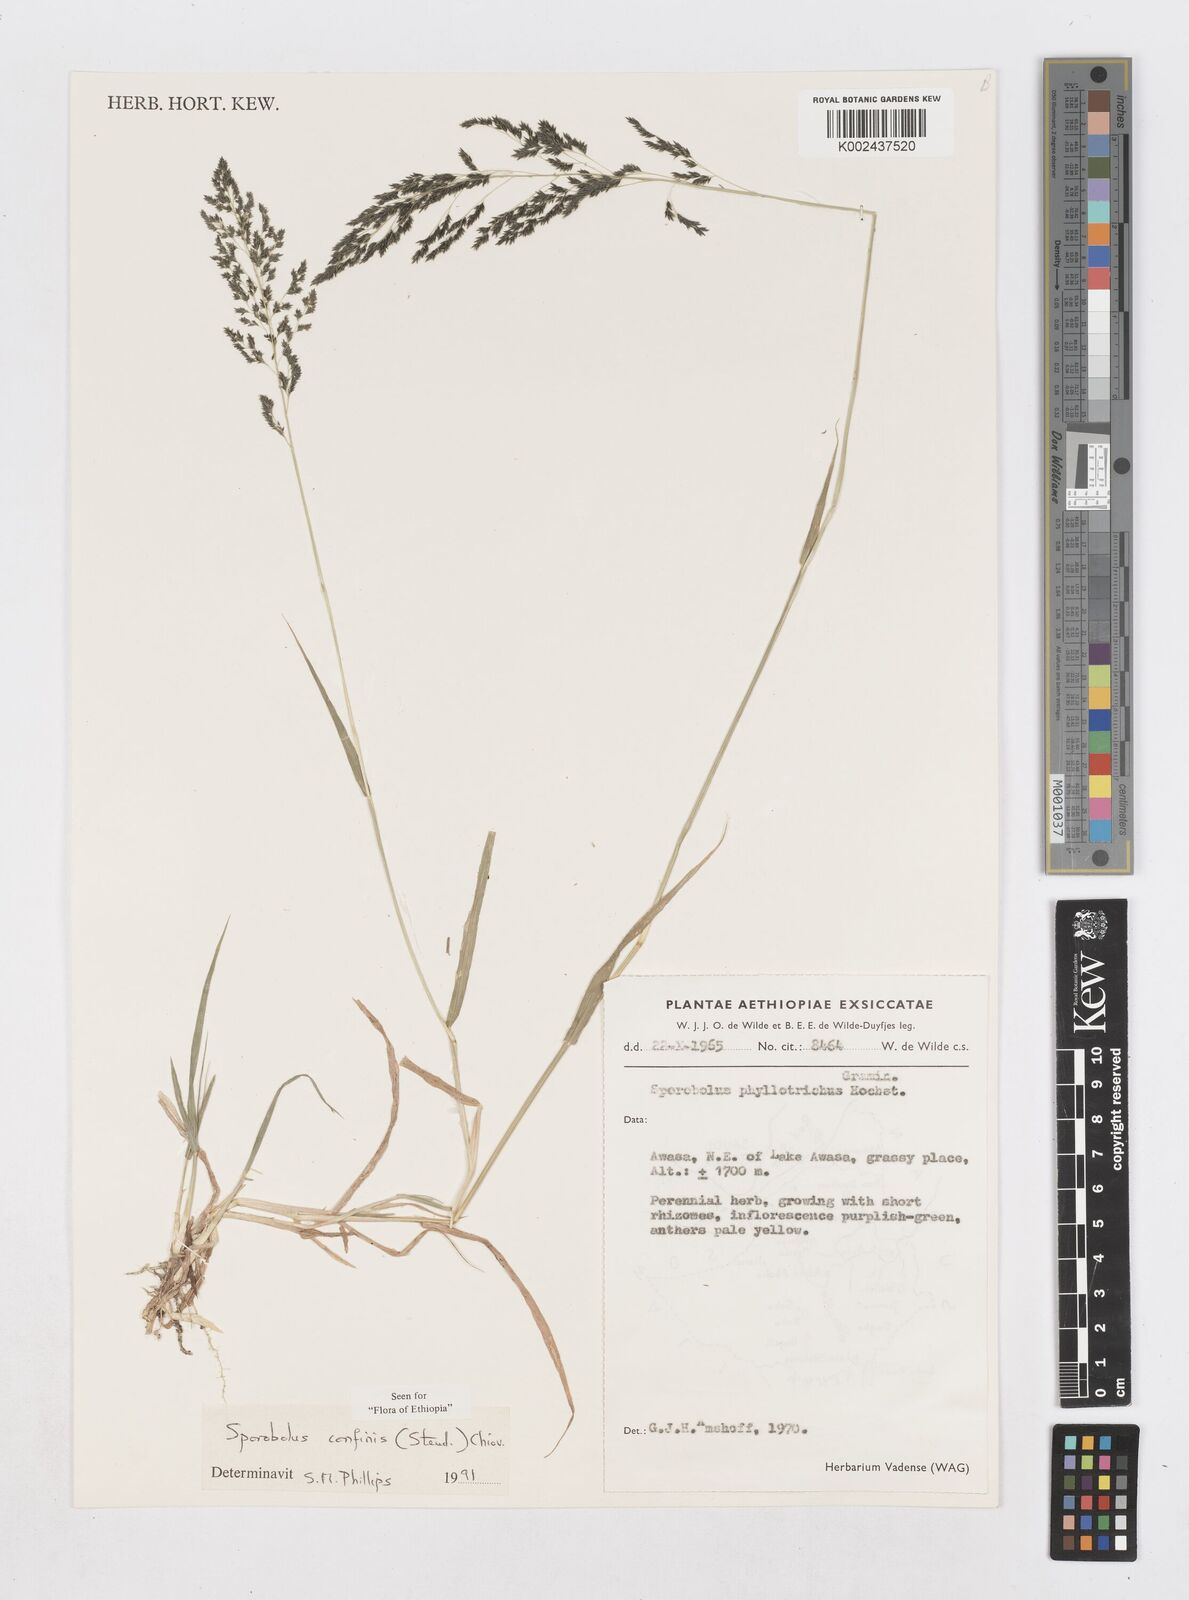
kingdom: Plantae
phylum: Tracheophyta
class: Liliopsida
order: Poales
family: Poaceae
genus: Sporobolus
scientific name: Sporobolus confinis
